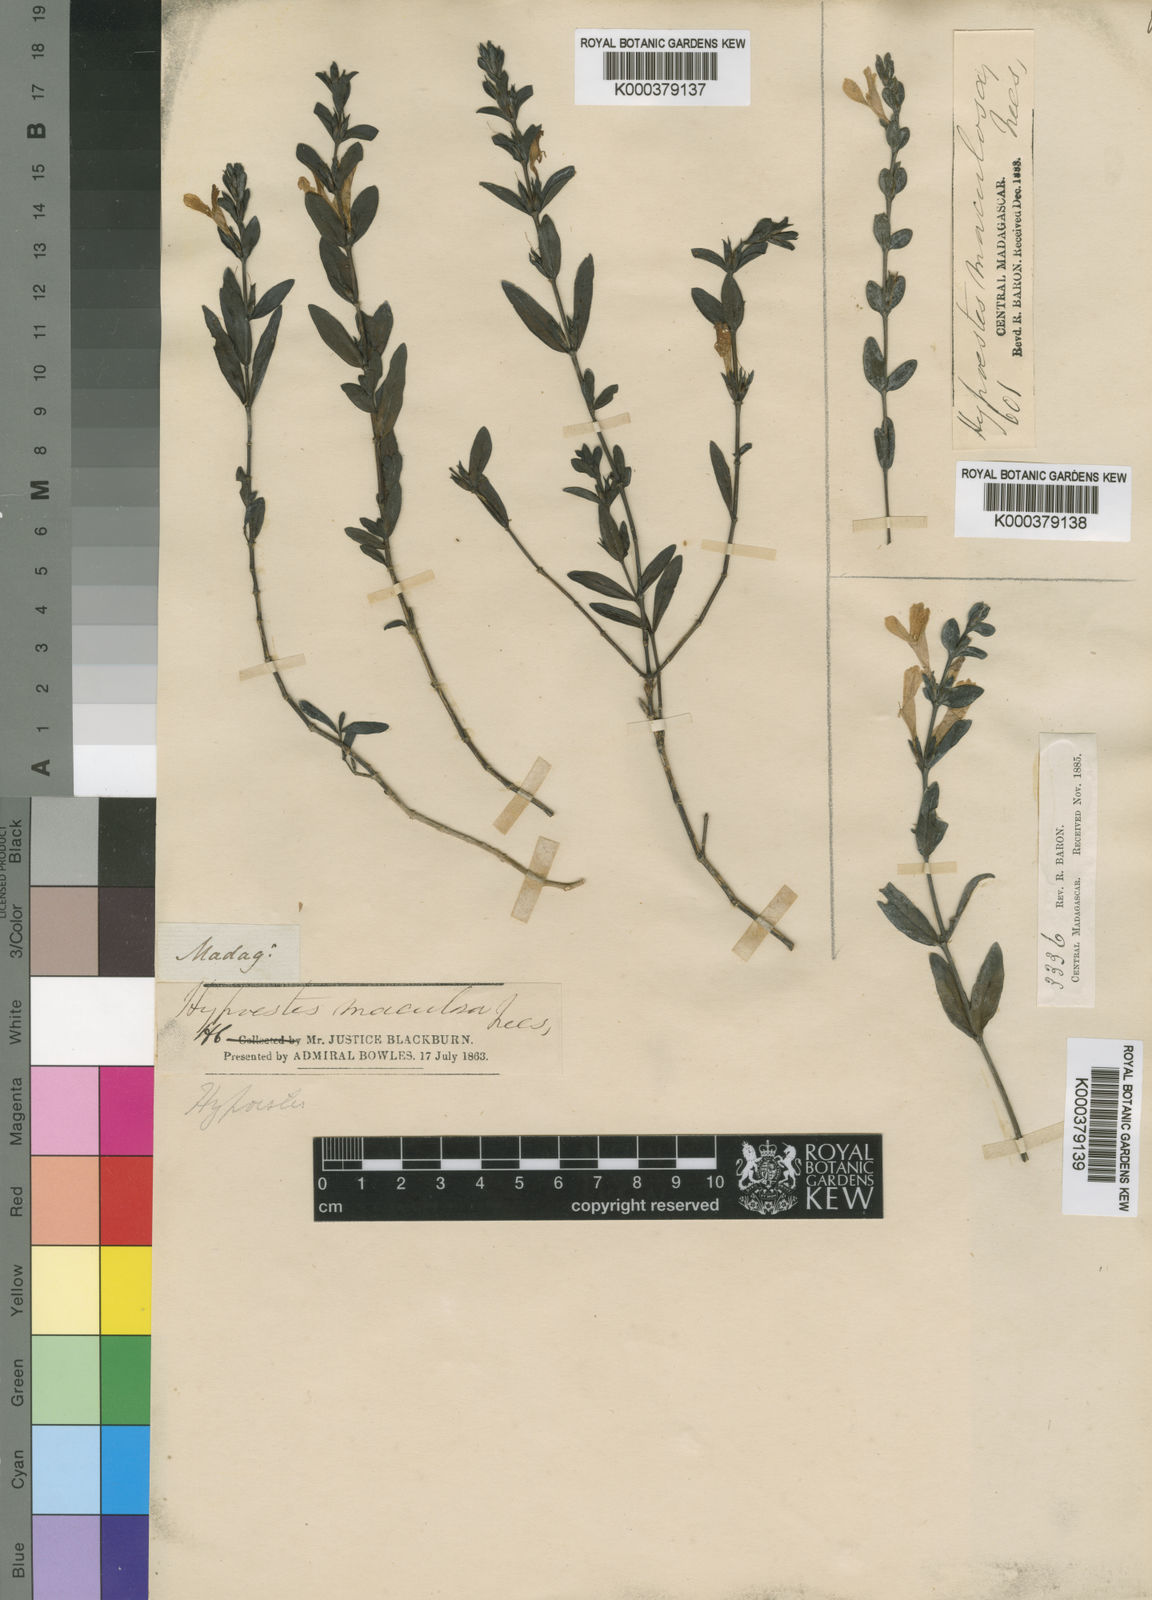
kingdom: Plantae
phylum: Tracheophyta
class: Magnoliopsida
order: Lamiales
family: Acanthaceae
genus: Hypoestes
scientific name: Hypoestes maculosa
